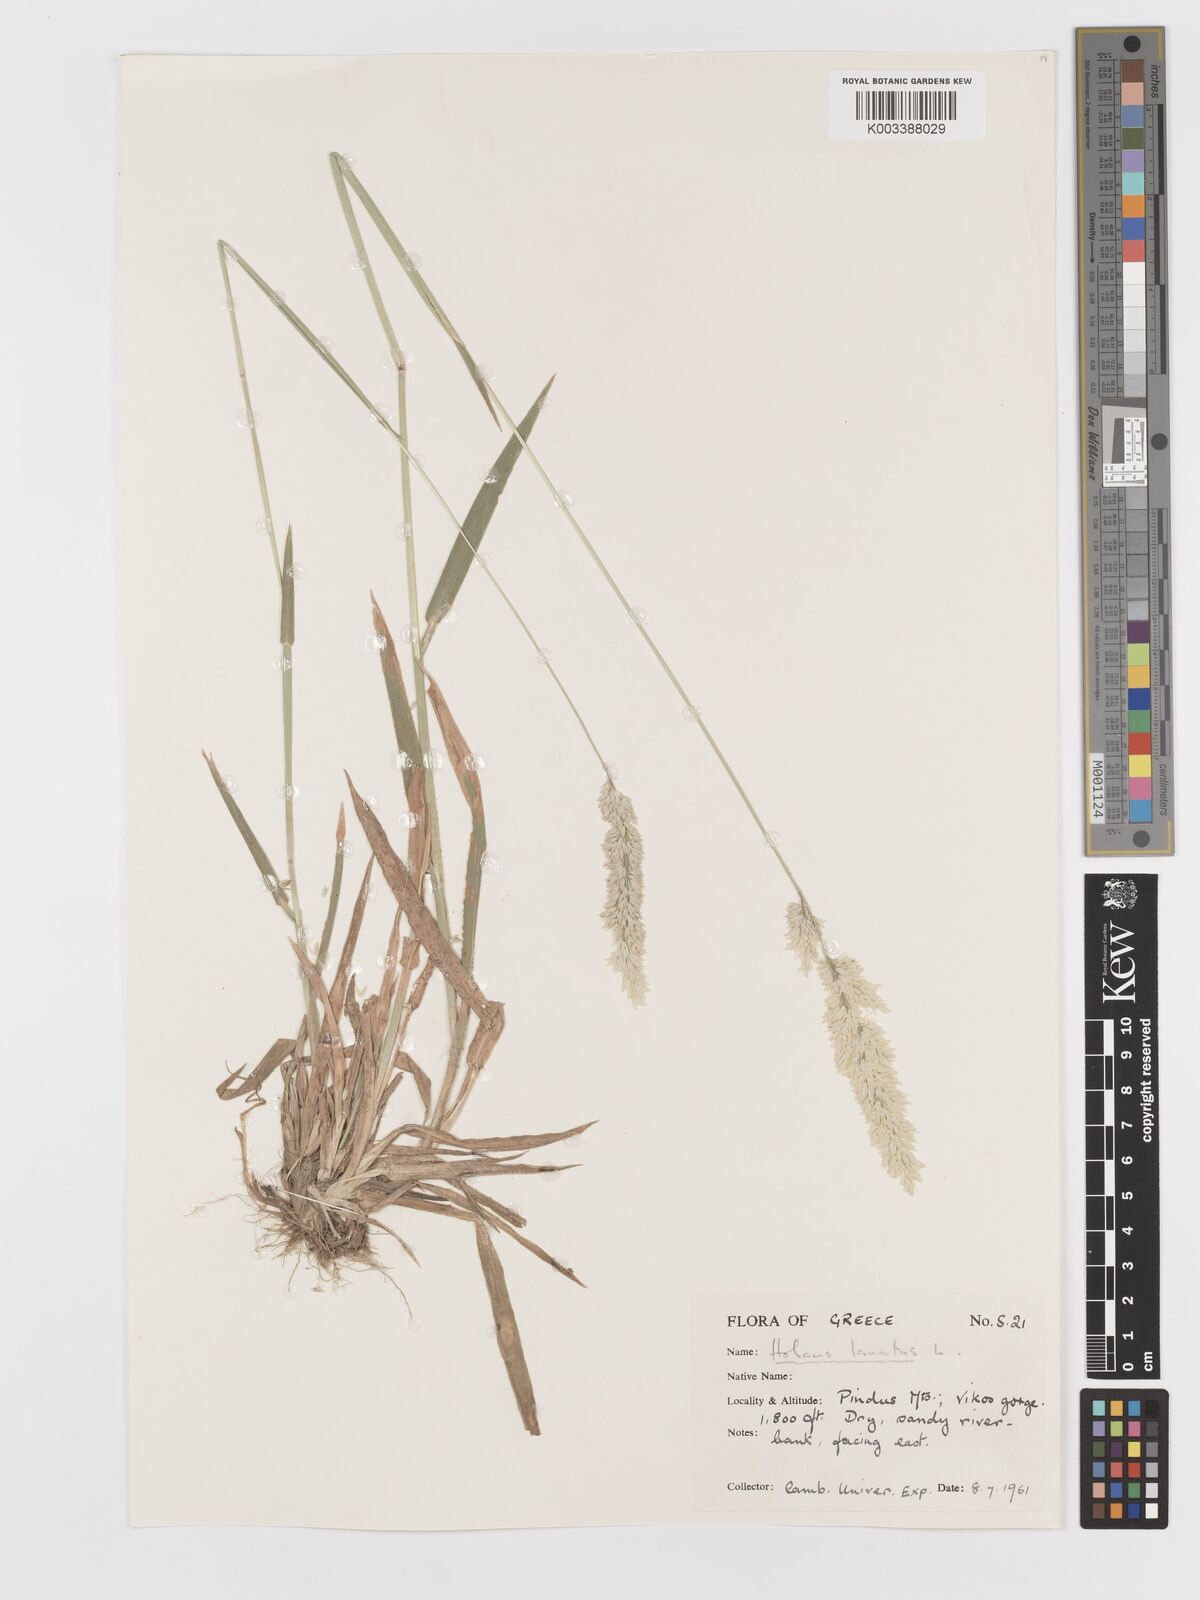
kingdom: Plantae
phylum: Tracheophyta
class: Liliopsida
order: Poales
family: Poaceae
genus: Holcus
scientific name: Holcus lanatus
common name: Yorkshire-fog
